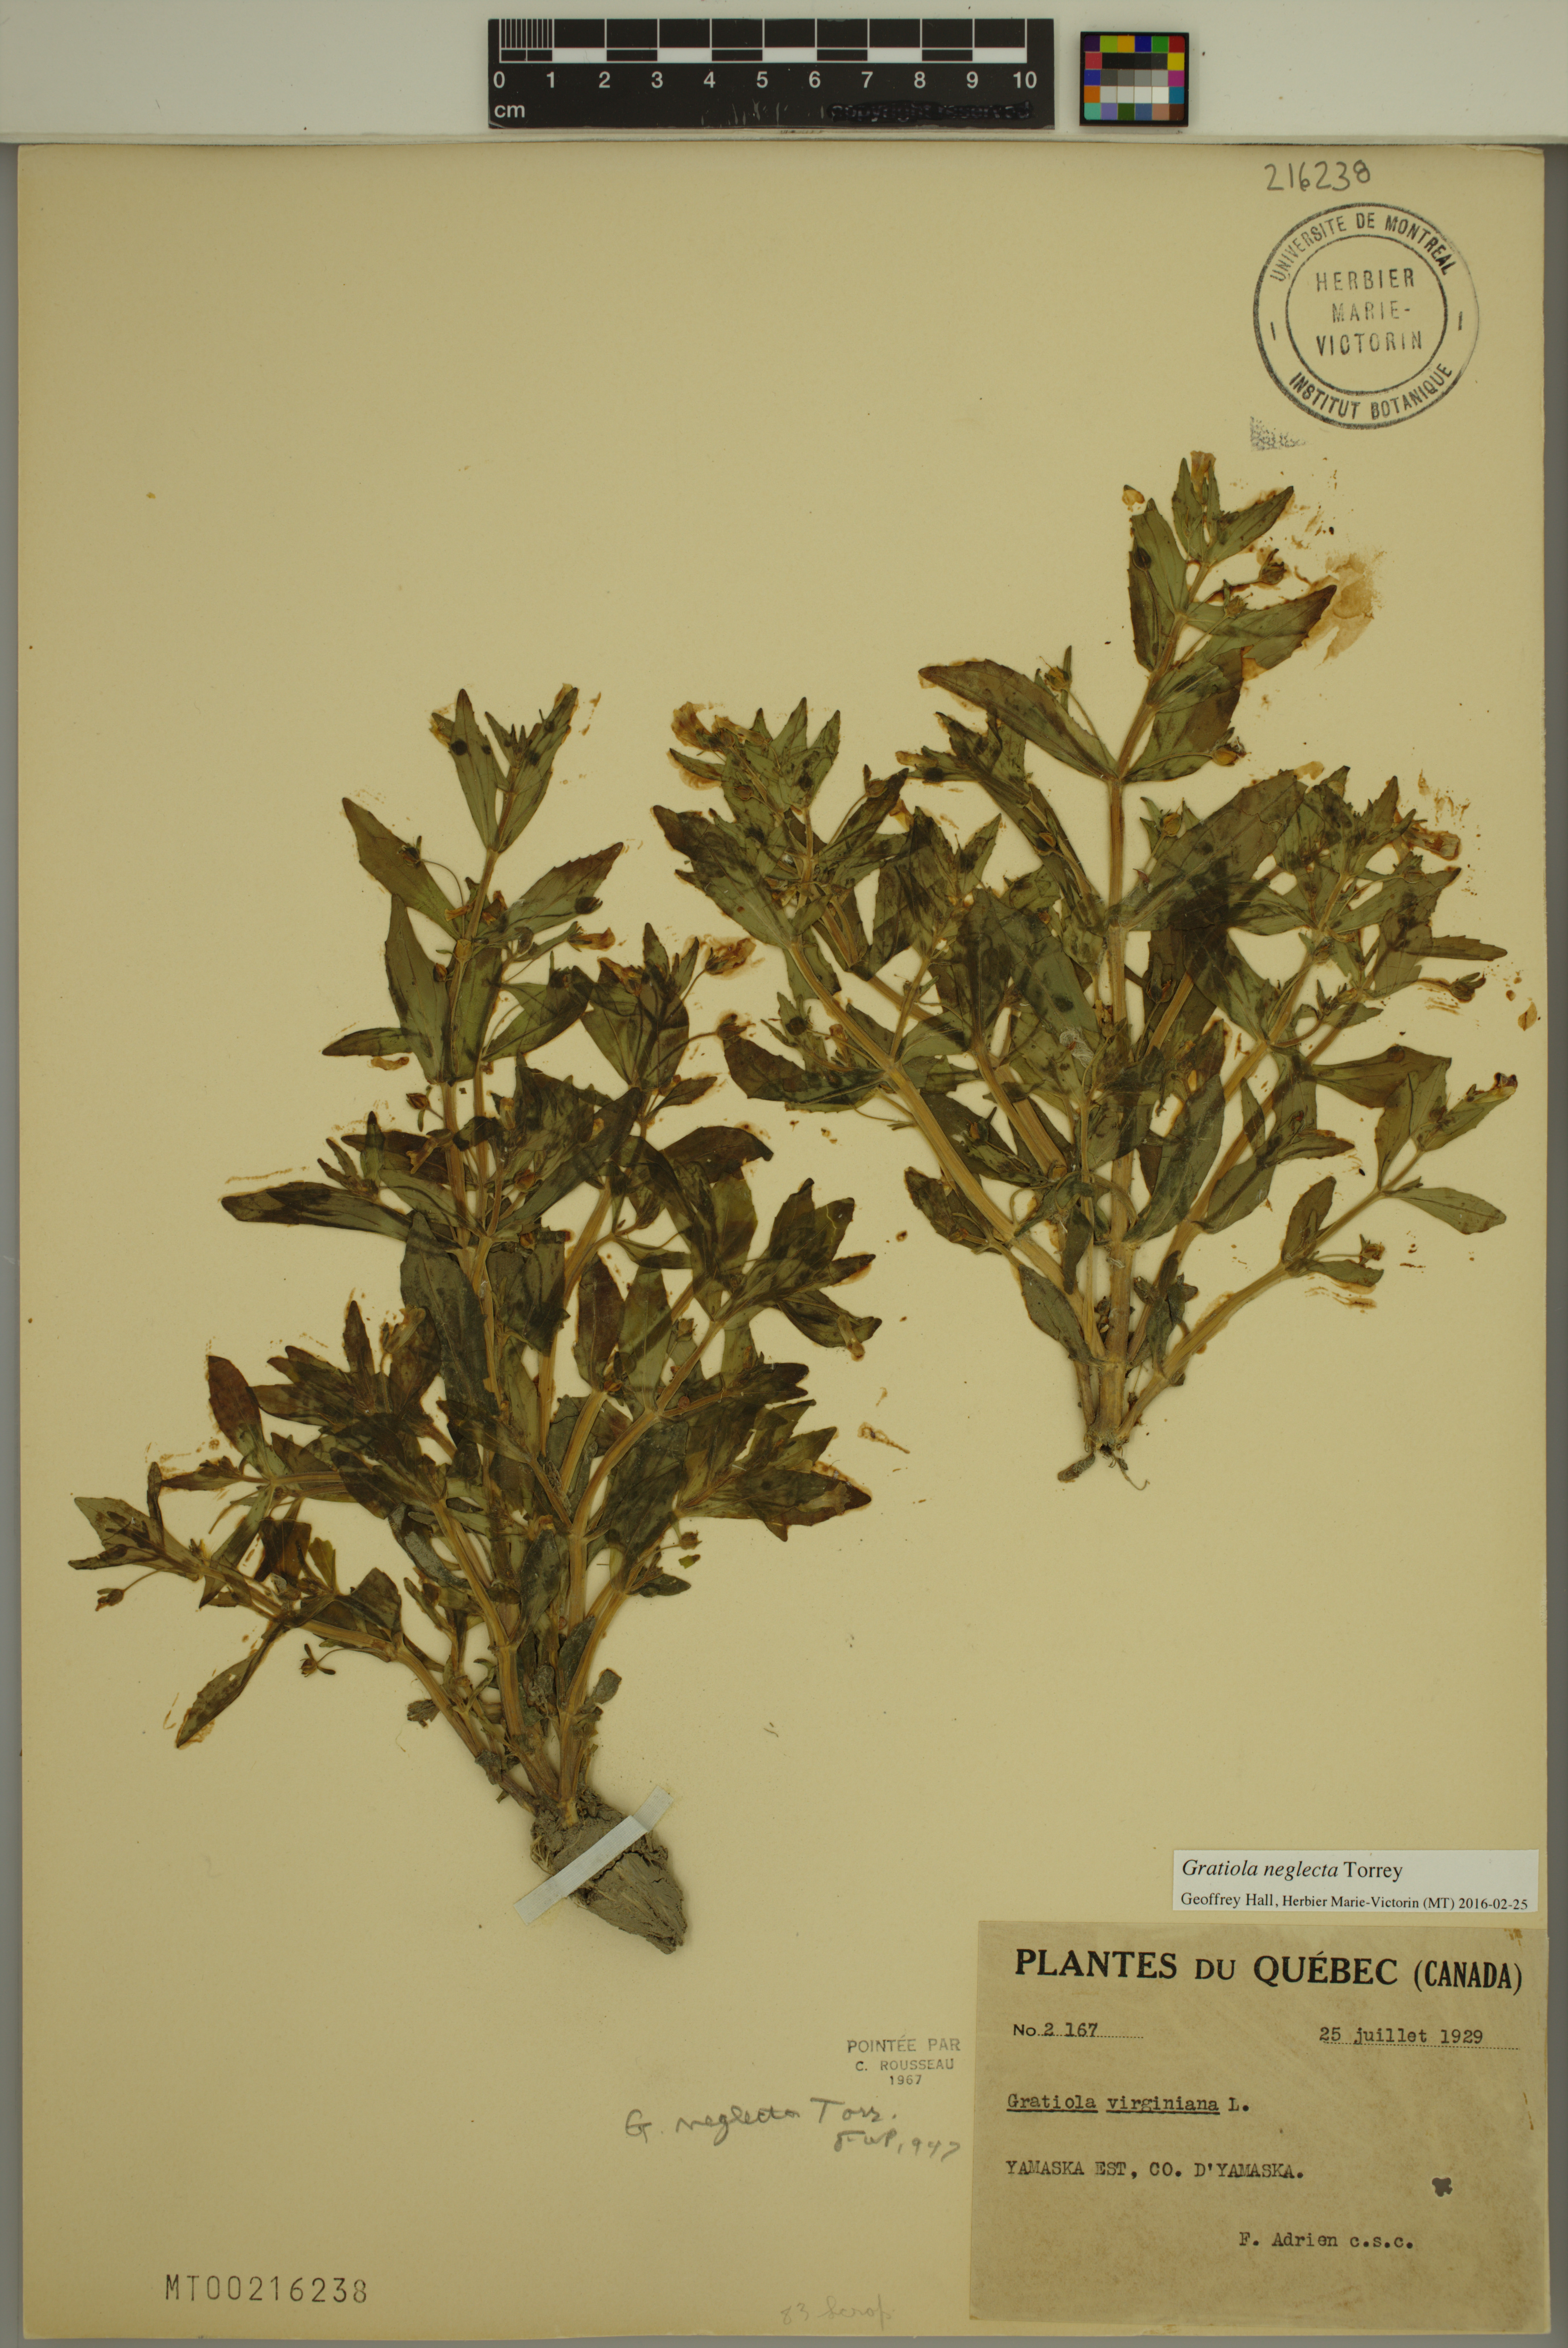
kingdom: Plantae
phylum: Tracheophyta
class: Magnoliopsida
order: Lamiales
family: Plantaginaceae
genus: Gratiola
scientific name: Gratiola neglecta
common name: American hedge-hyssop
